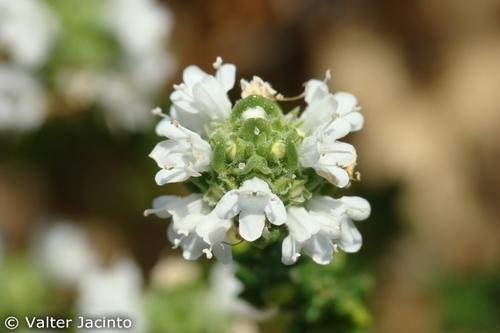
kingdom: Plantae
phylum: Tracheophyta
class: Magnoliopsida
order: Lamiales
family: Lamiaceae
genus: Thymus
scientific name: Thymus carnosus
